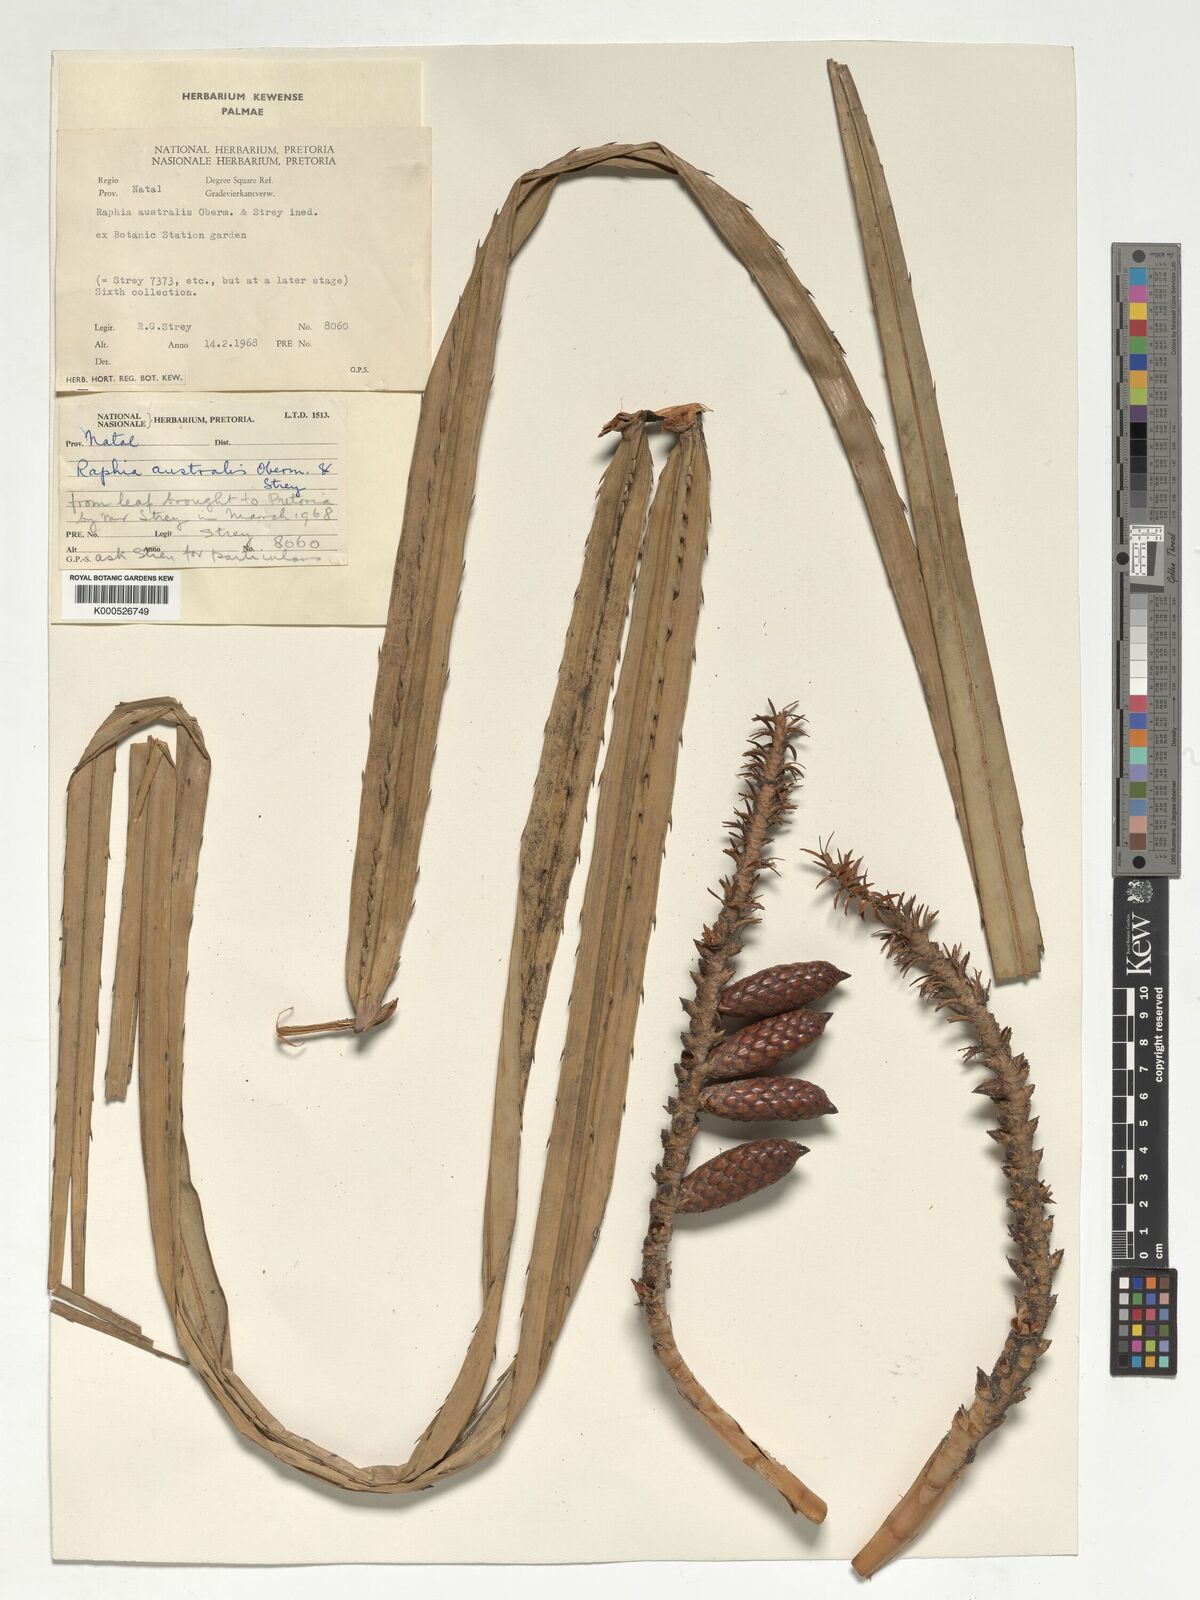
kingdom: Plantae
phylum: Tracheophyta
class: Liliopsida
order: Arecales
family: Arecaceae
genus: Raphia
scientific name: Raphia australis
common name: Giant palm
